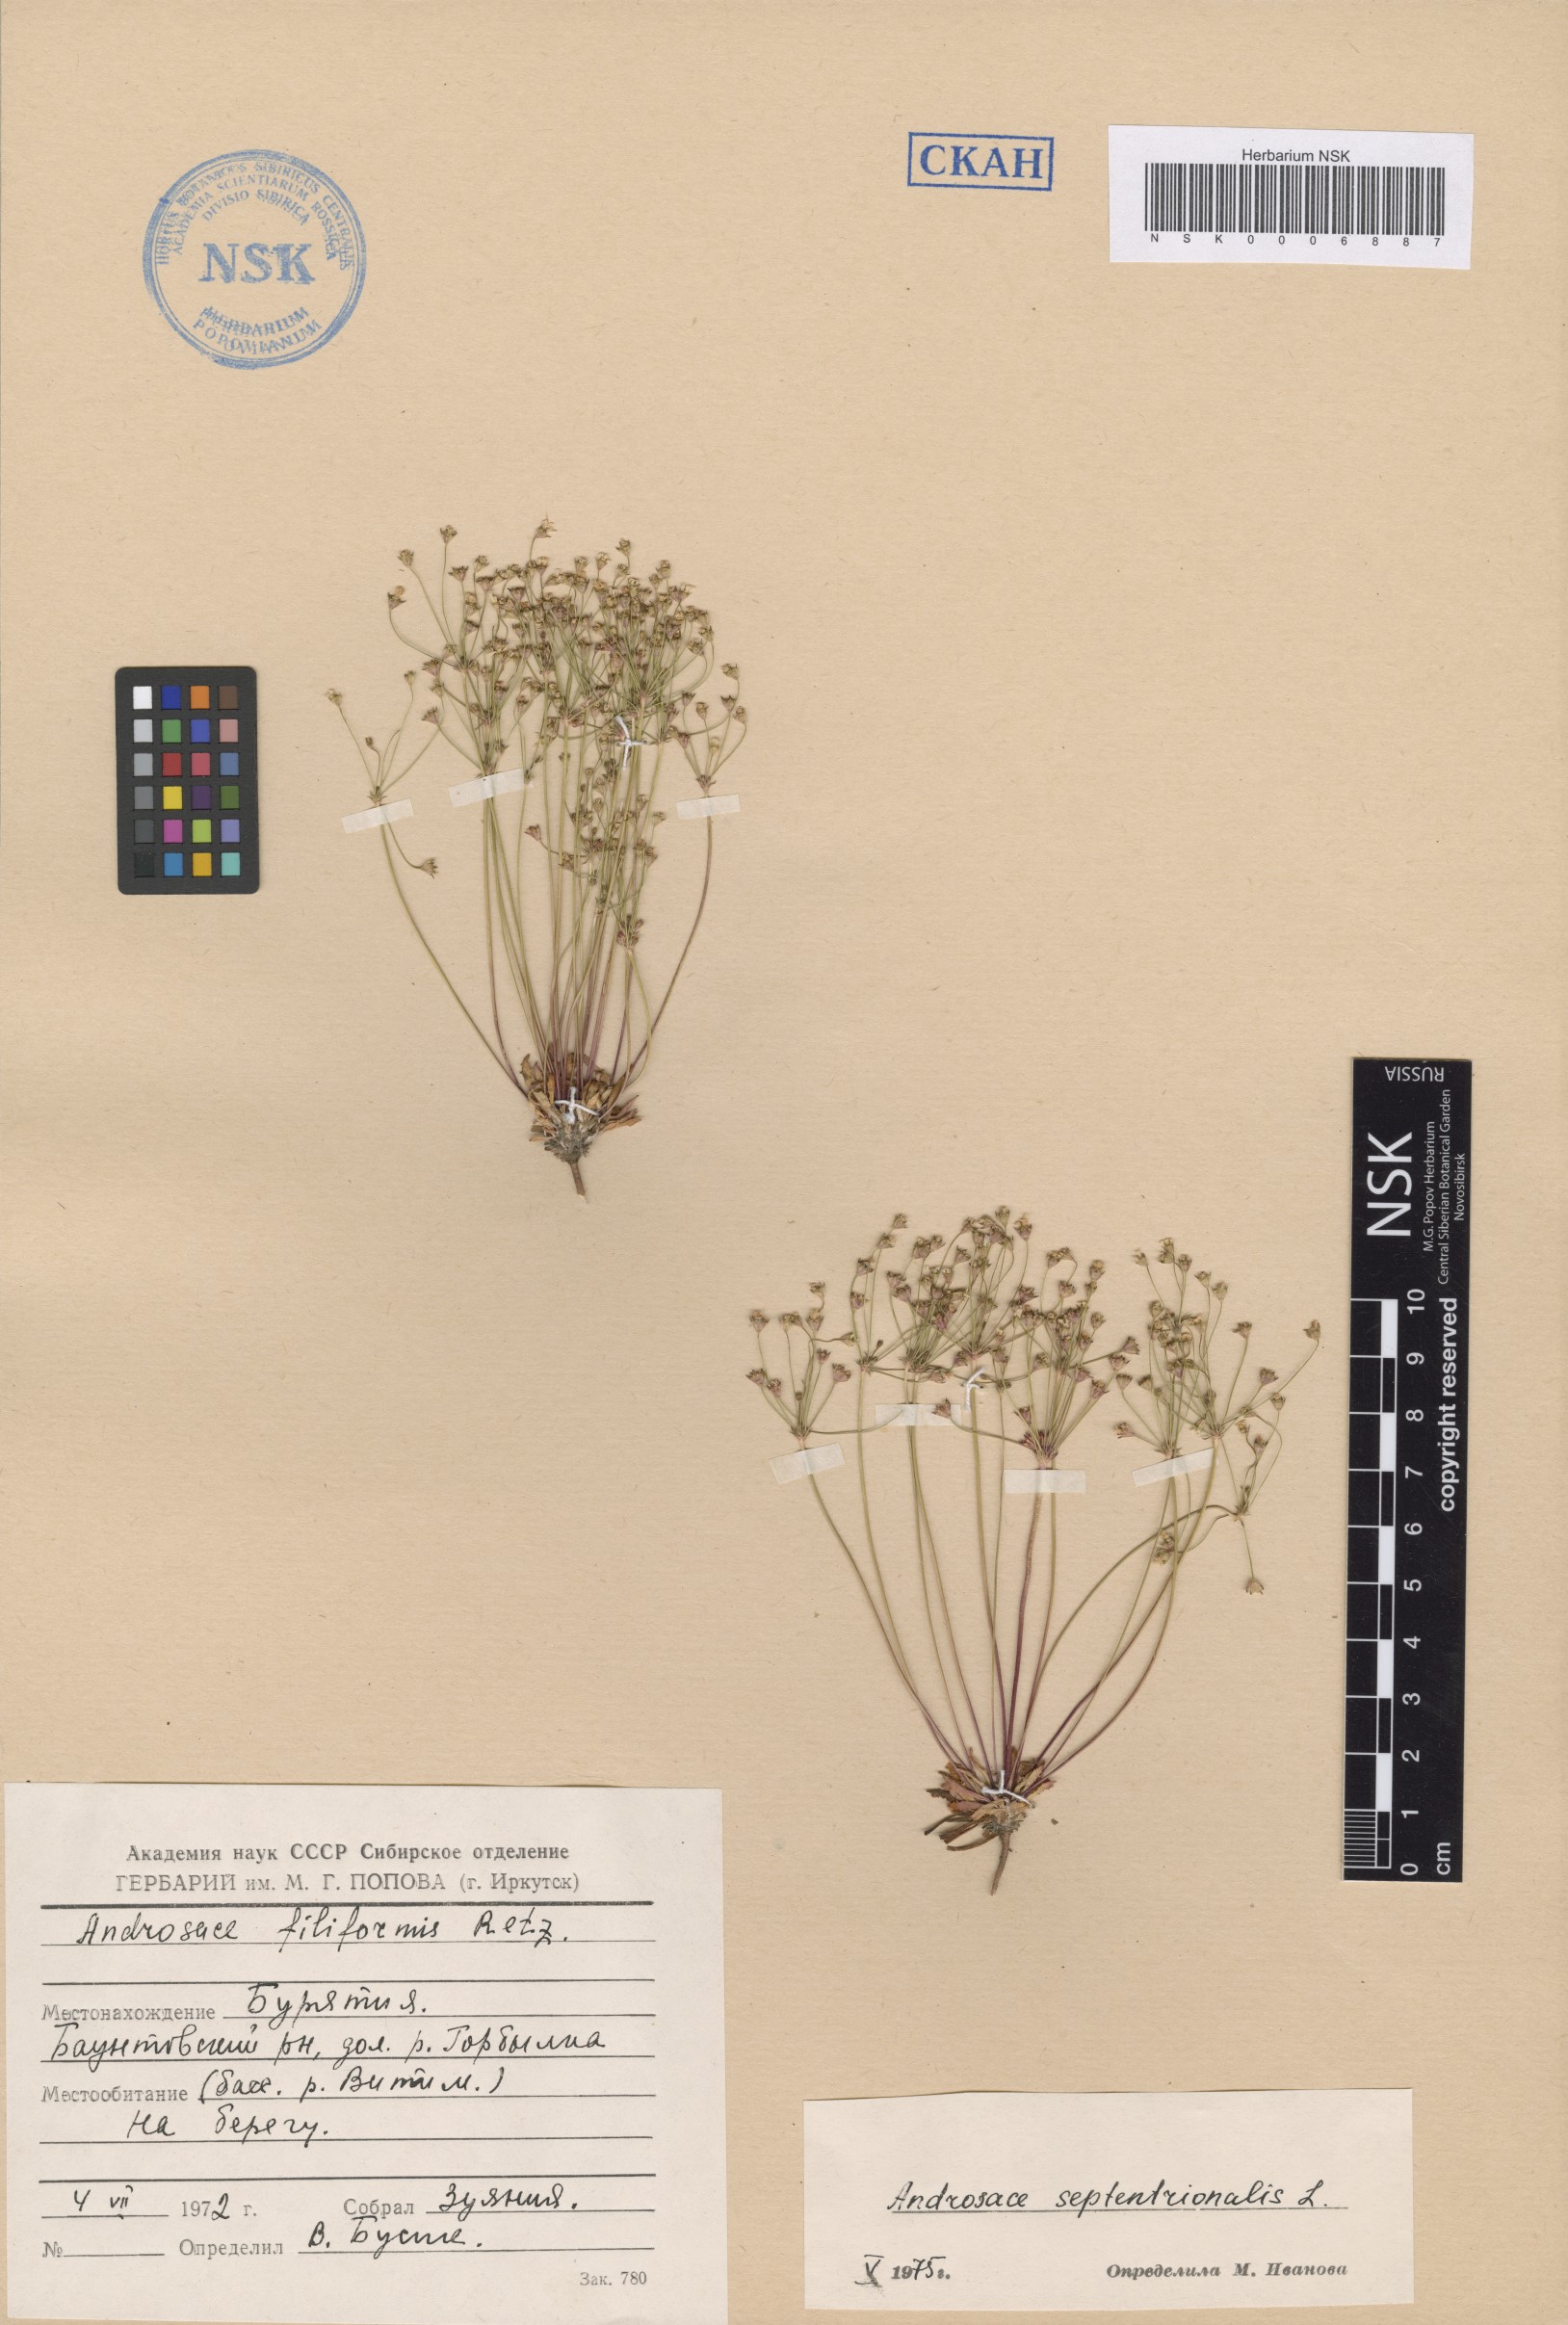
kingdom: Plantae
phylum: Tracheophyta
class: Magnoliopsida
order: Ericales
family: Primulaceae
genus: Androsace
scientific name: Androsace septentrionalis
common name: Hairy northern fairy-candelabra
